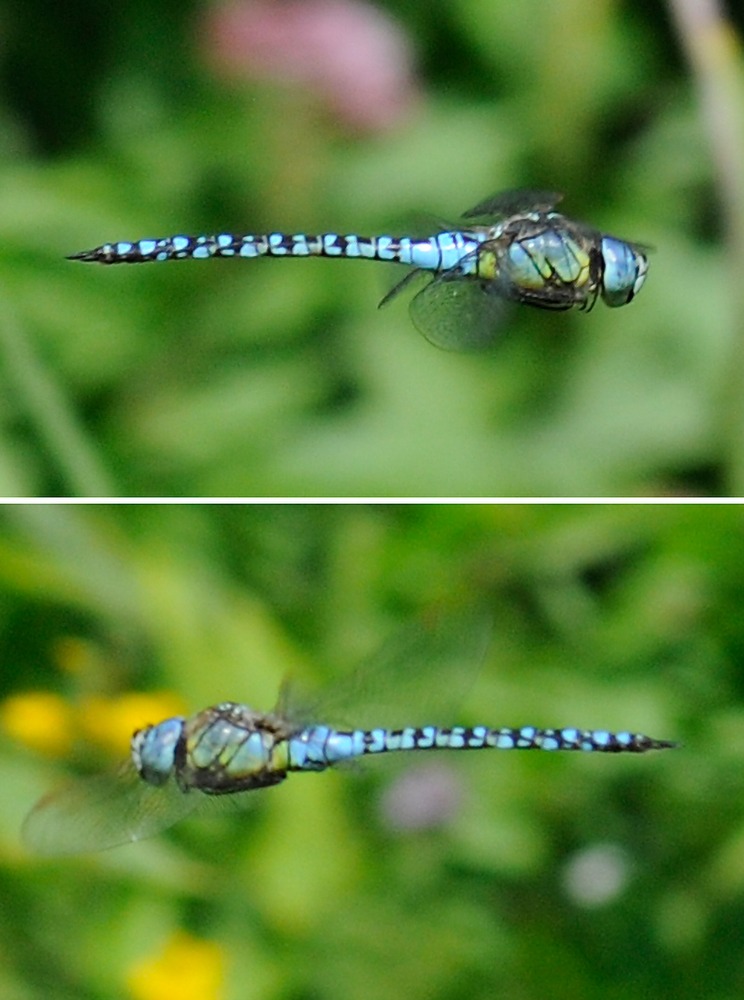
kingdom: Animalia
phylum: Arthropoda
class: Insecta
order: Odonata
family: Aeshnidae
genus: Aeshna
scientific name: Aeshna affinis
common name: Sydlig mosaikguldsmed
